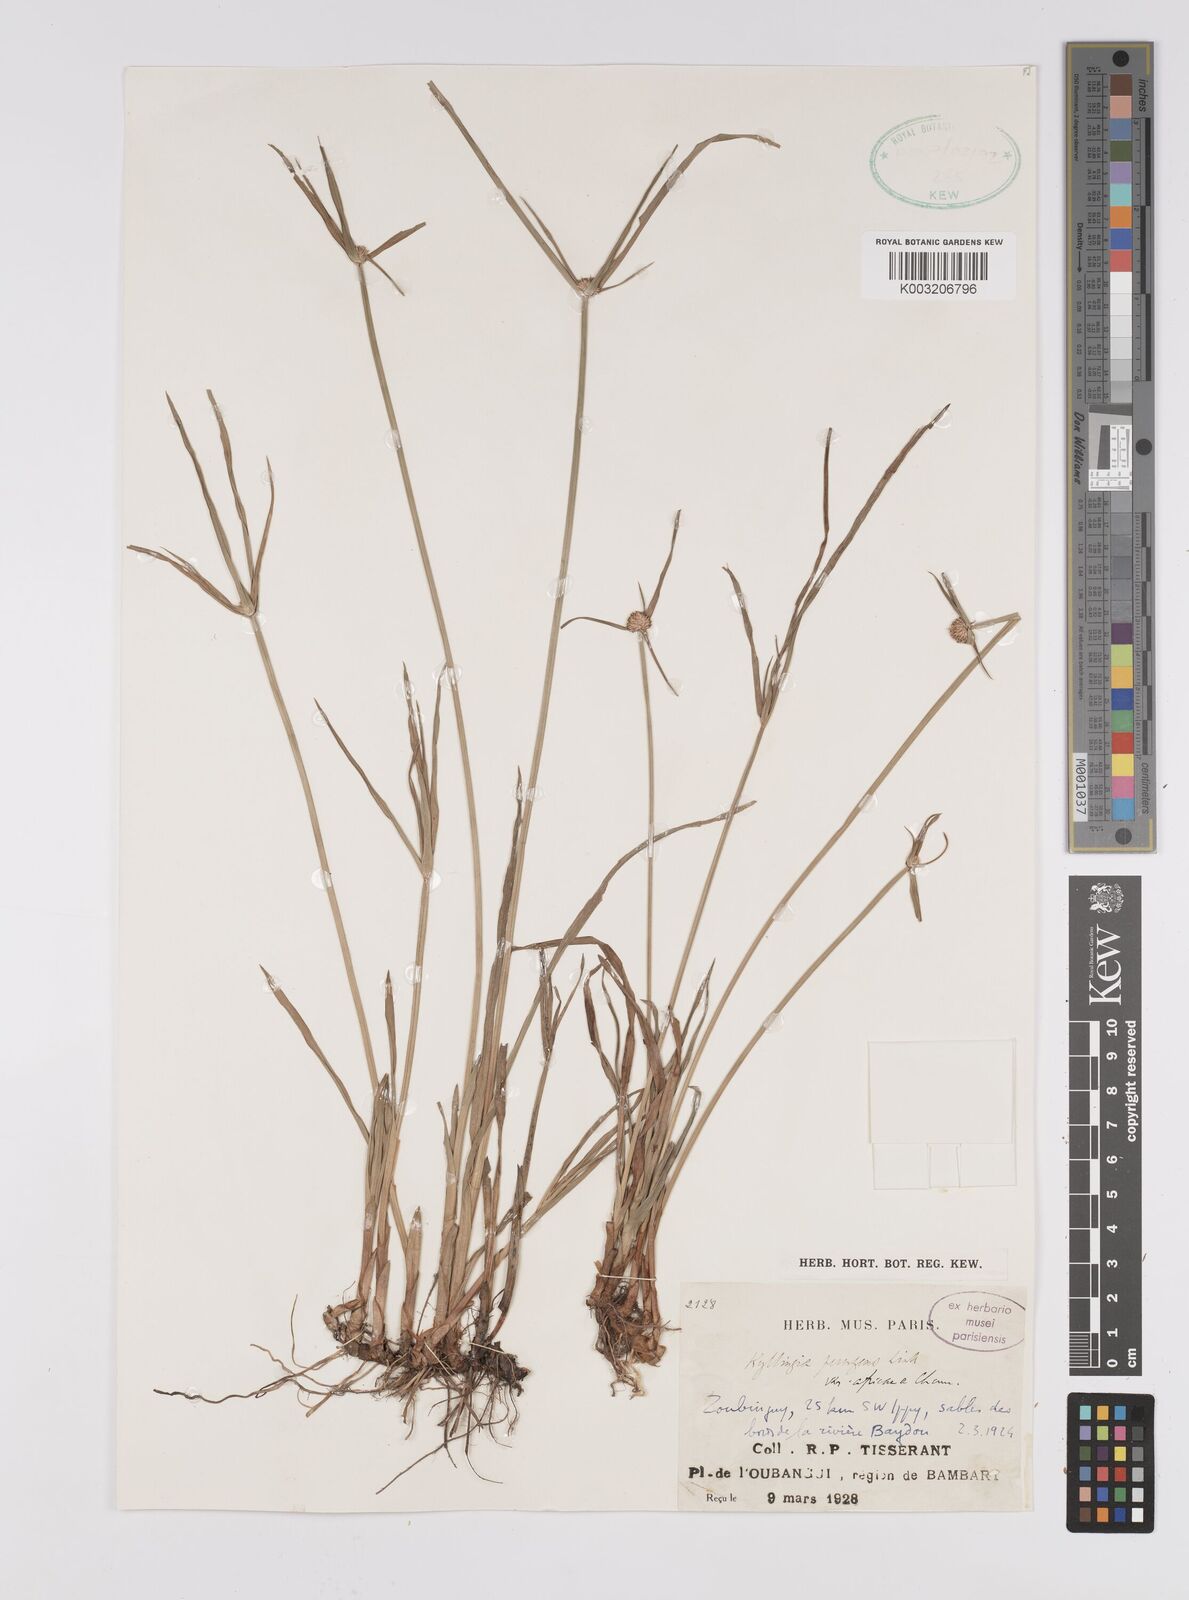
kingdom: Plantae
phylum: Tracheophyta
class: Liliopsida
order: Poales
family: Cyperaceae
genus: Cyperus
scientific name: Cyperus
